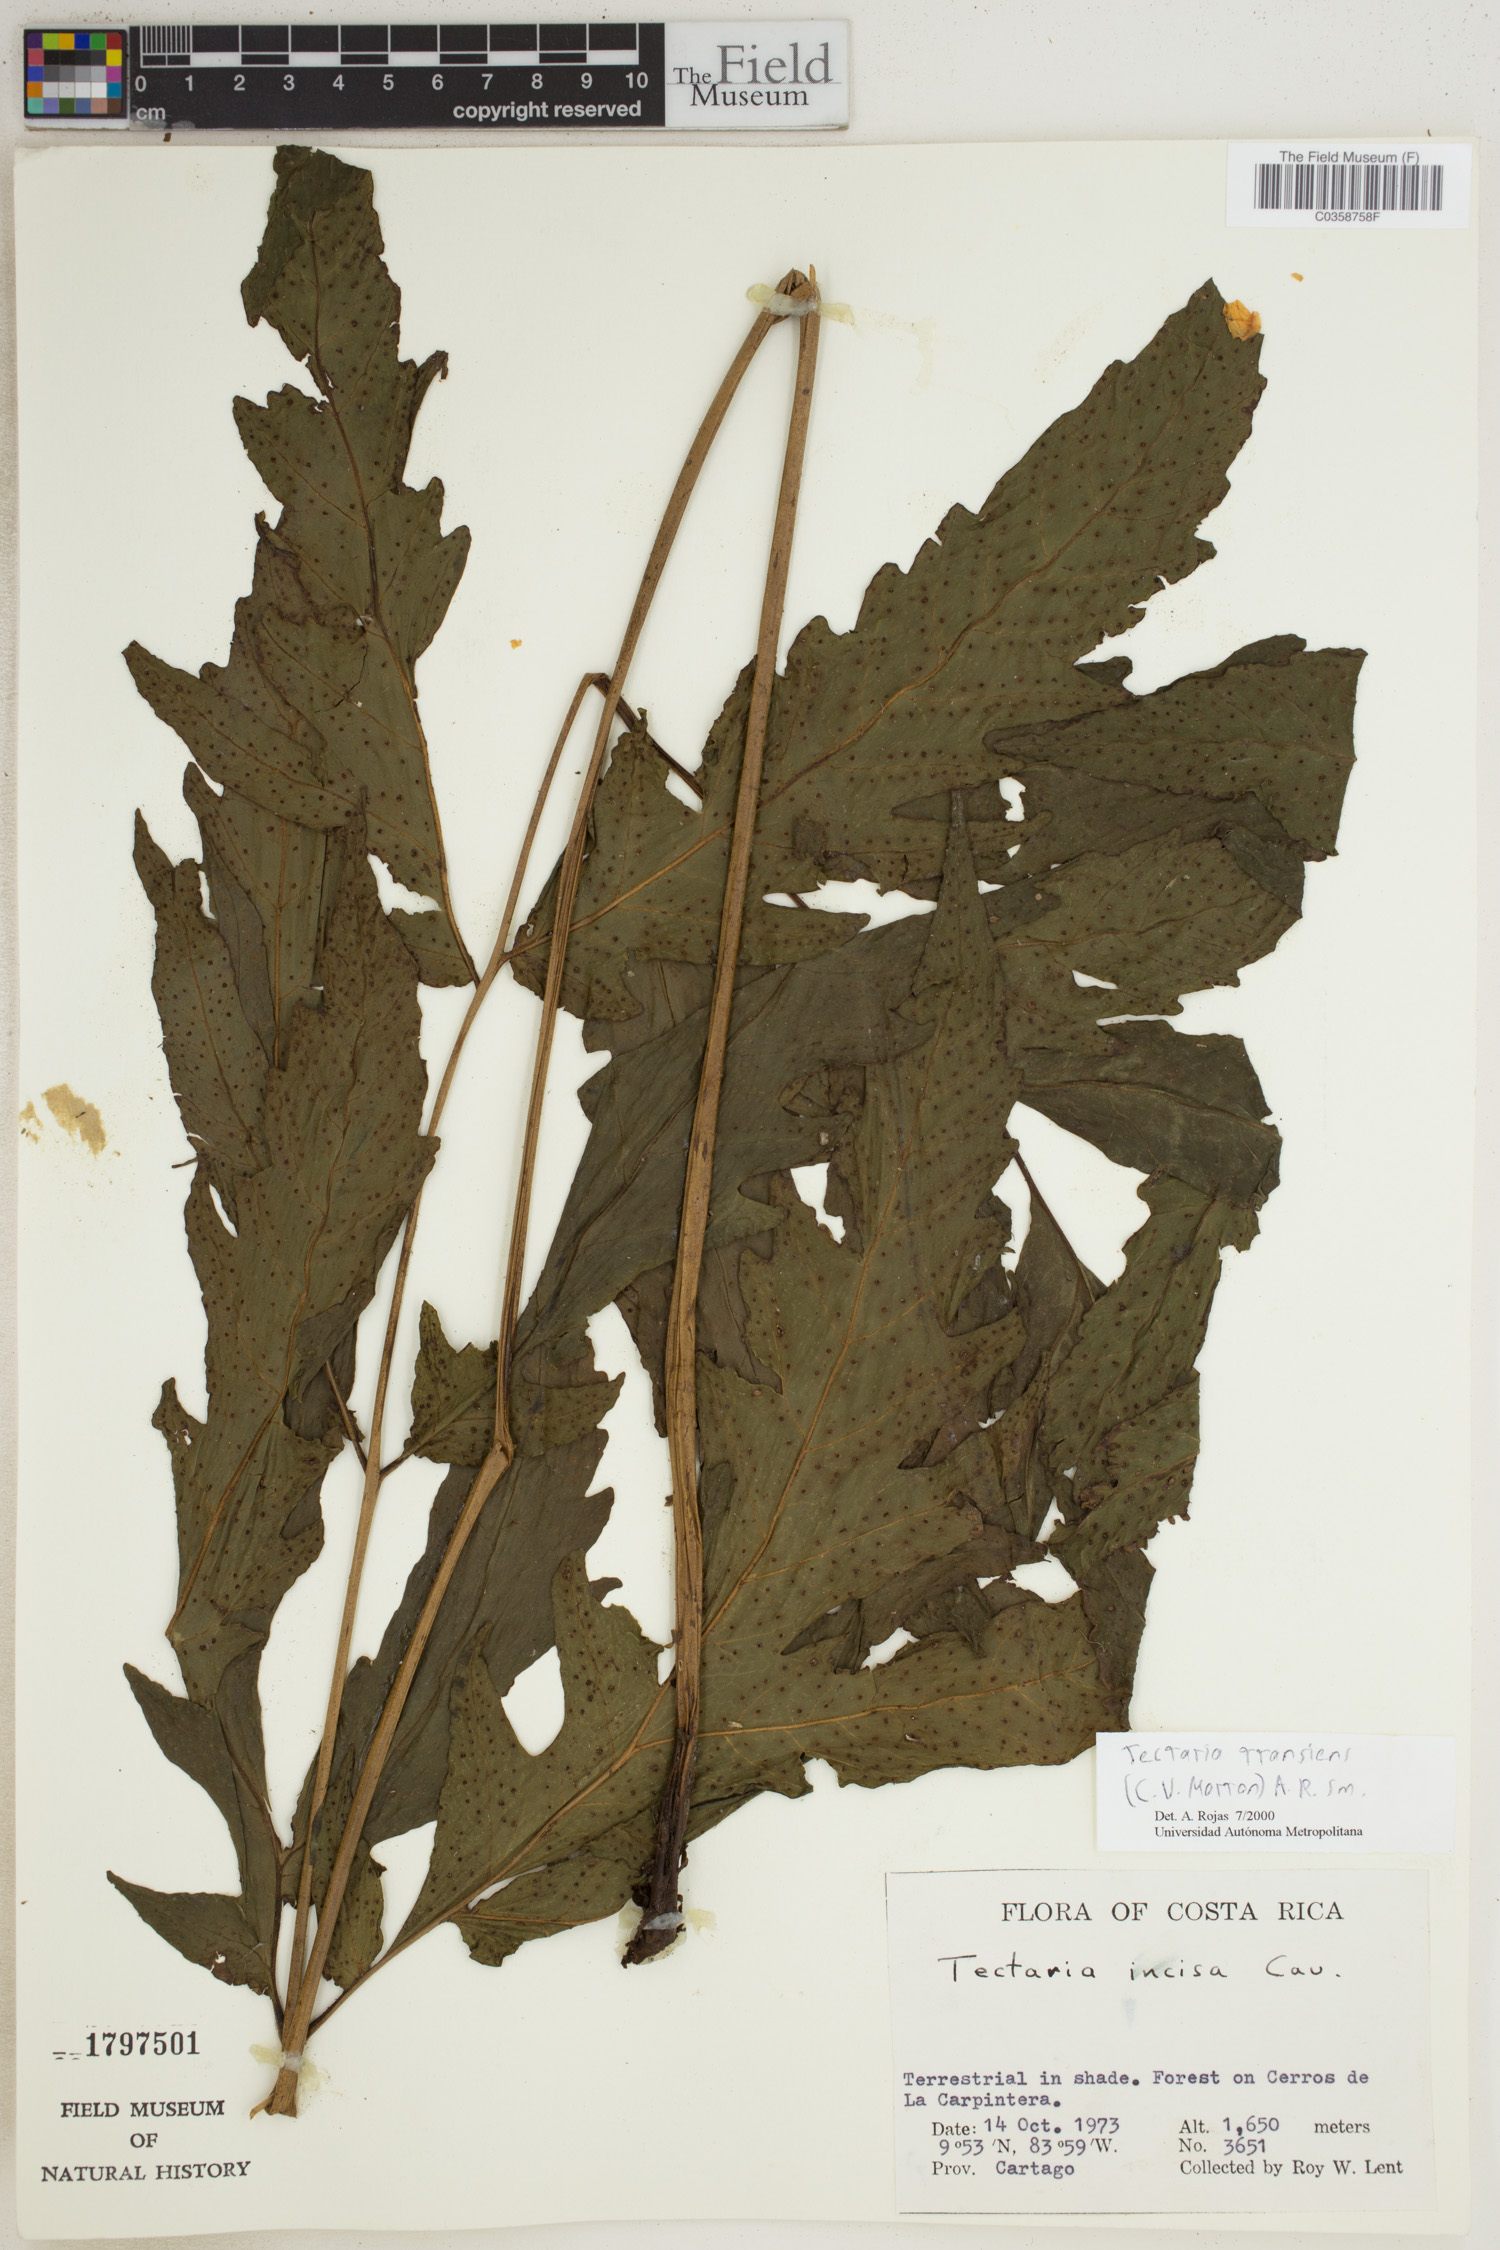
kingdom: Plantae
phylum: Tracheophyta
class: Polypodiopsida
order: Polypodiales
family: Tectariaceae
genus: Tectaria
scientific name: Tectaria transiens
